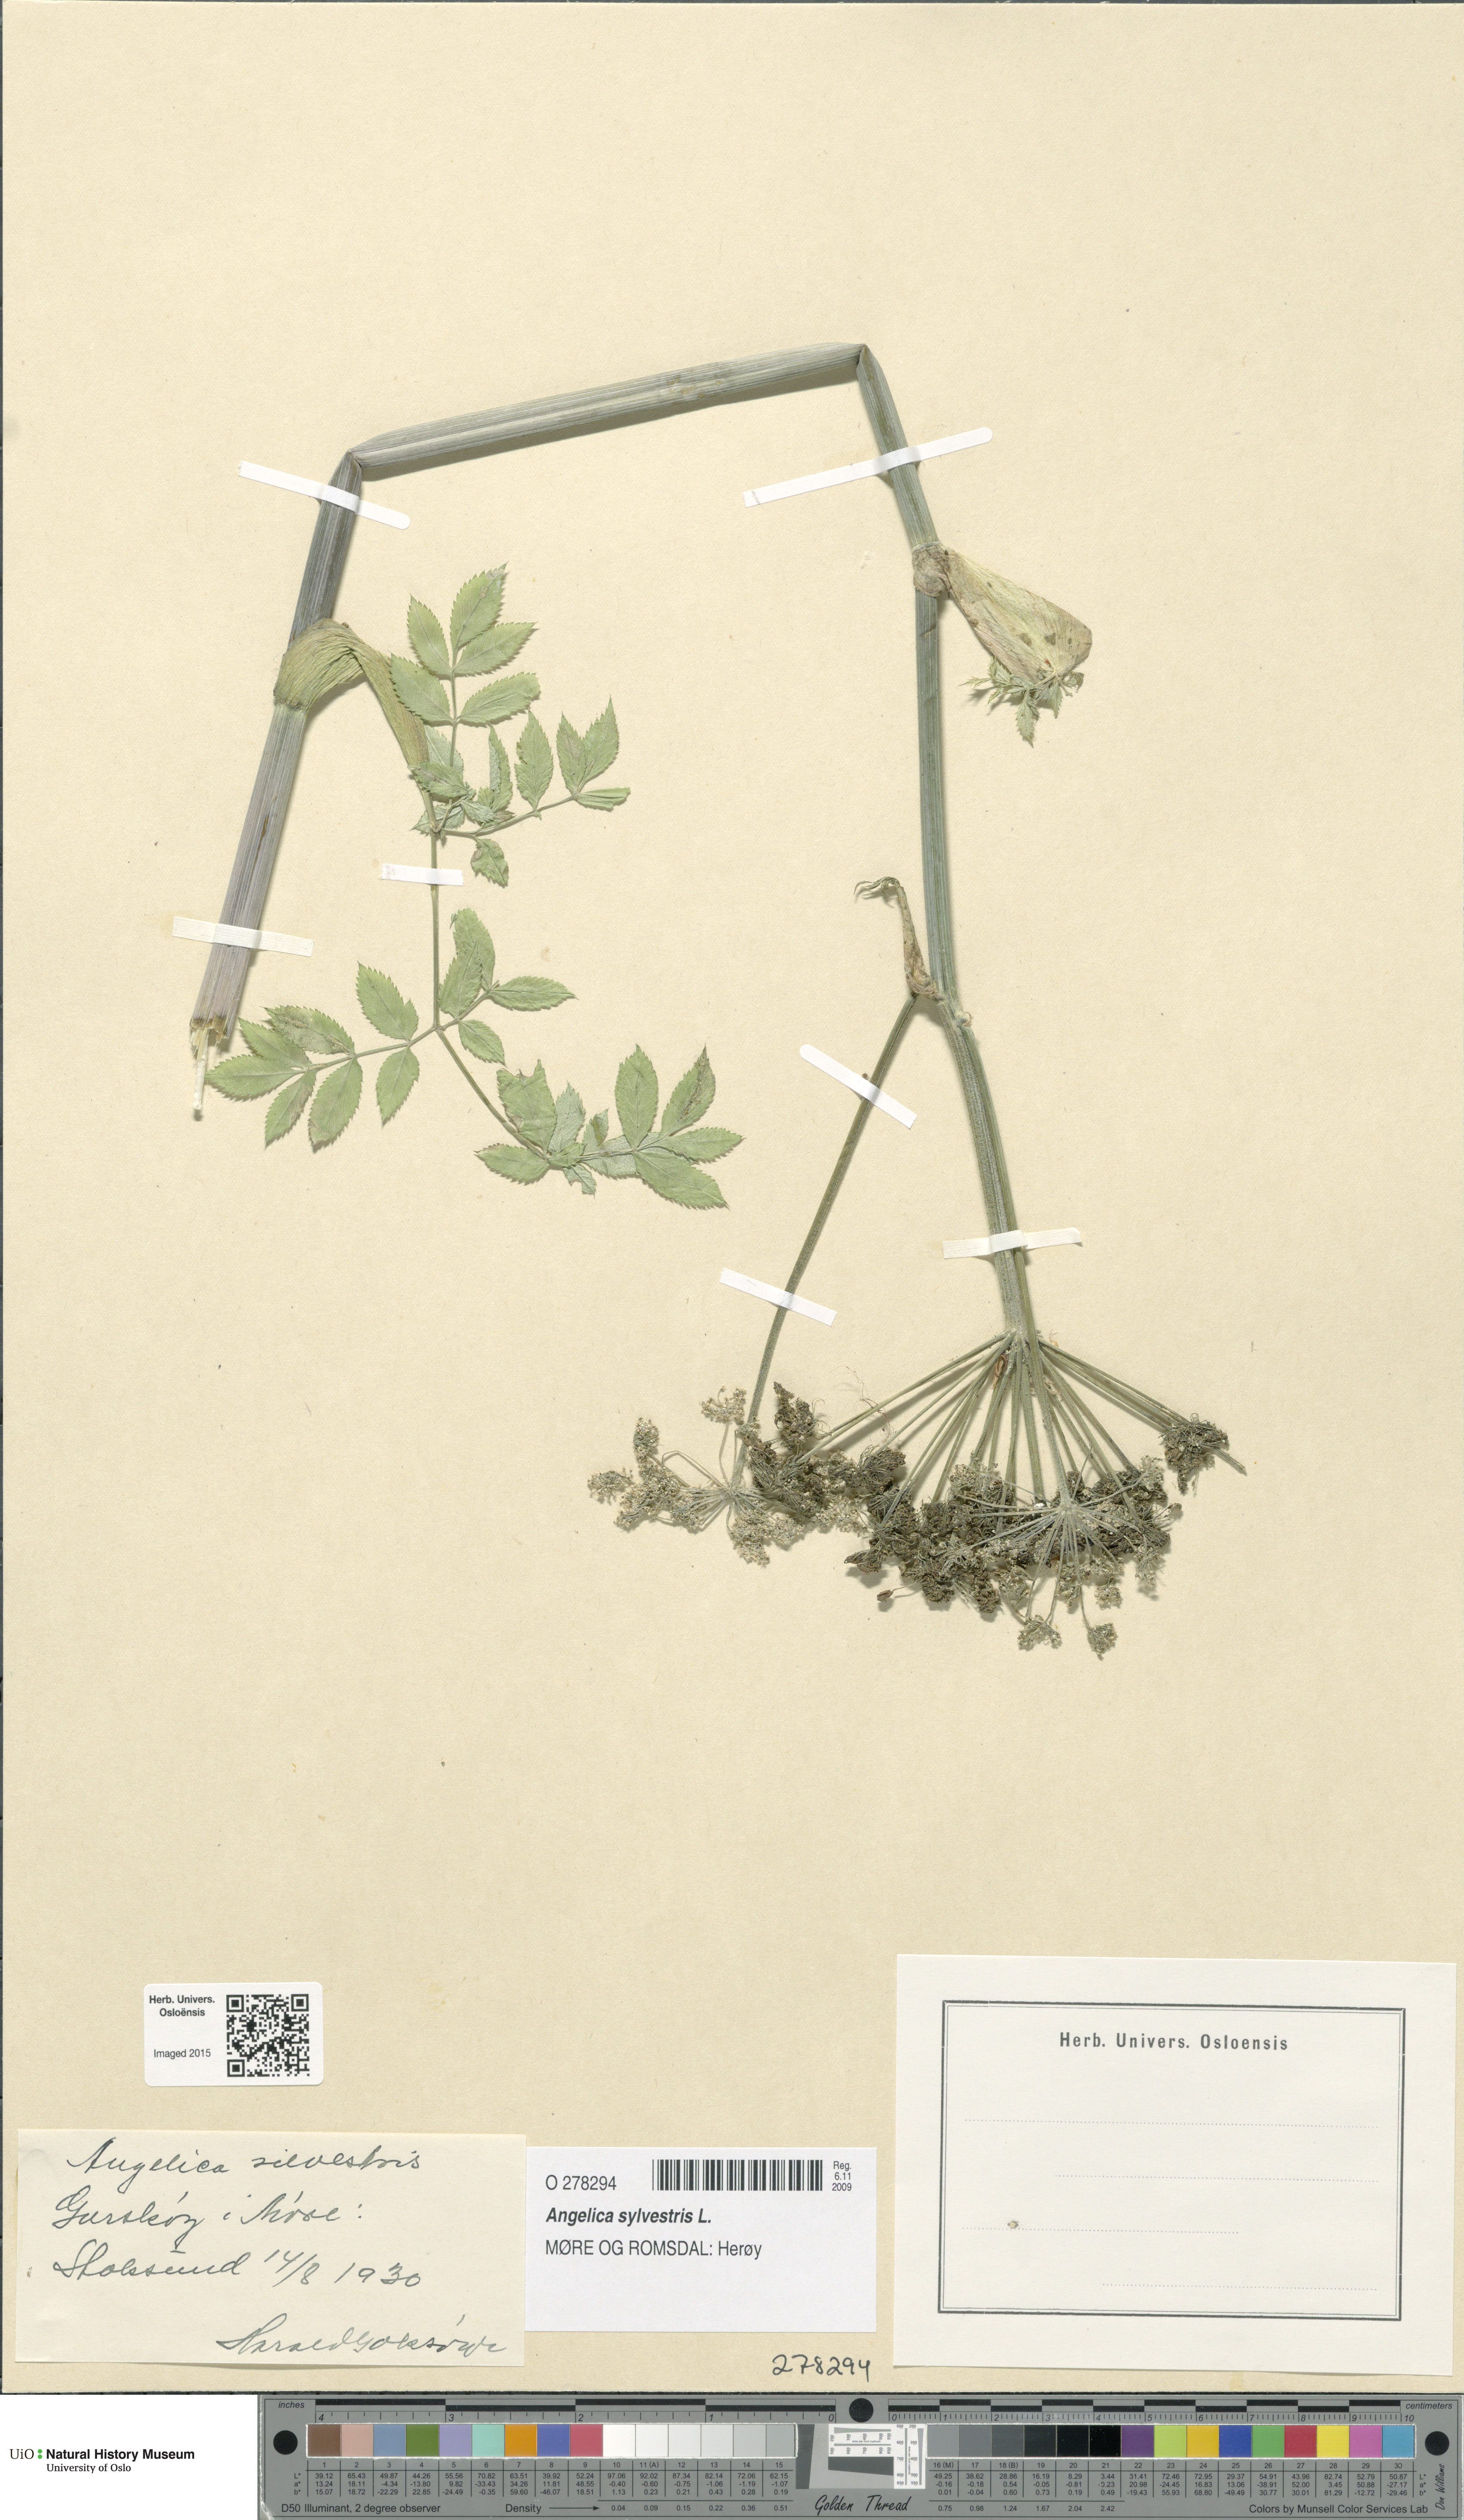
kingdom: Plantae
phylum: Tracheophyta
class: Magnoliopsida
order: Apiales
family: Apiaceae
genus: Angelica
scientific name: Angelica sylvestris
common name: Wild angelica
